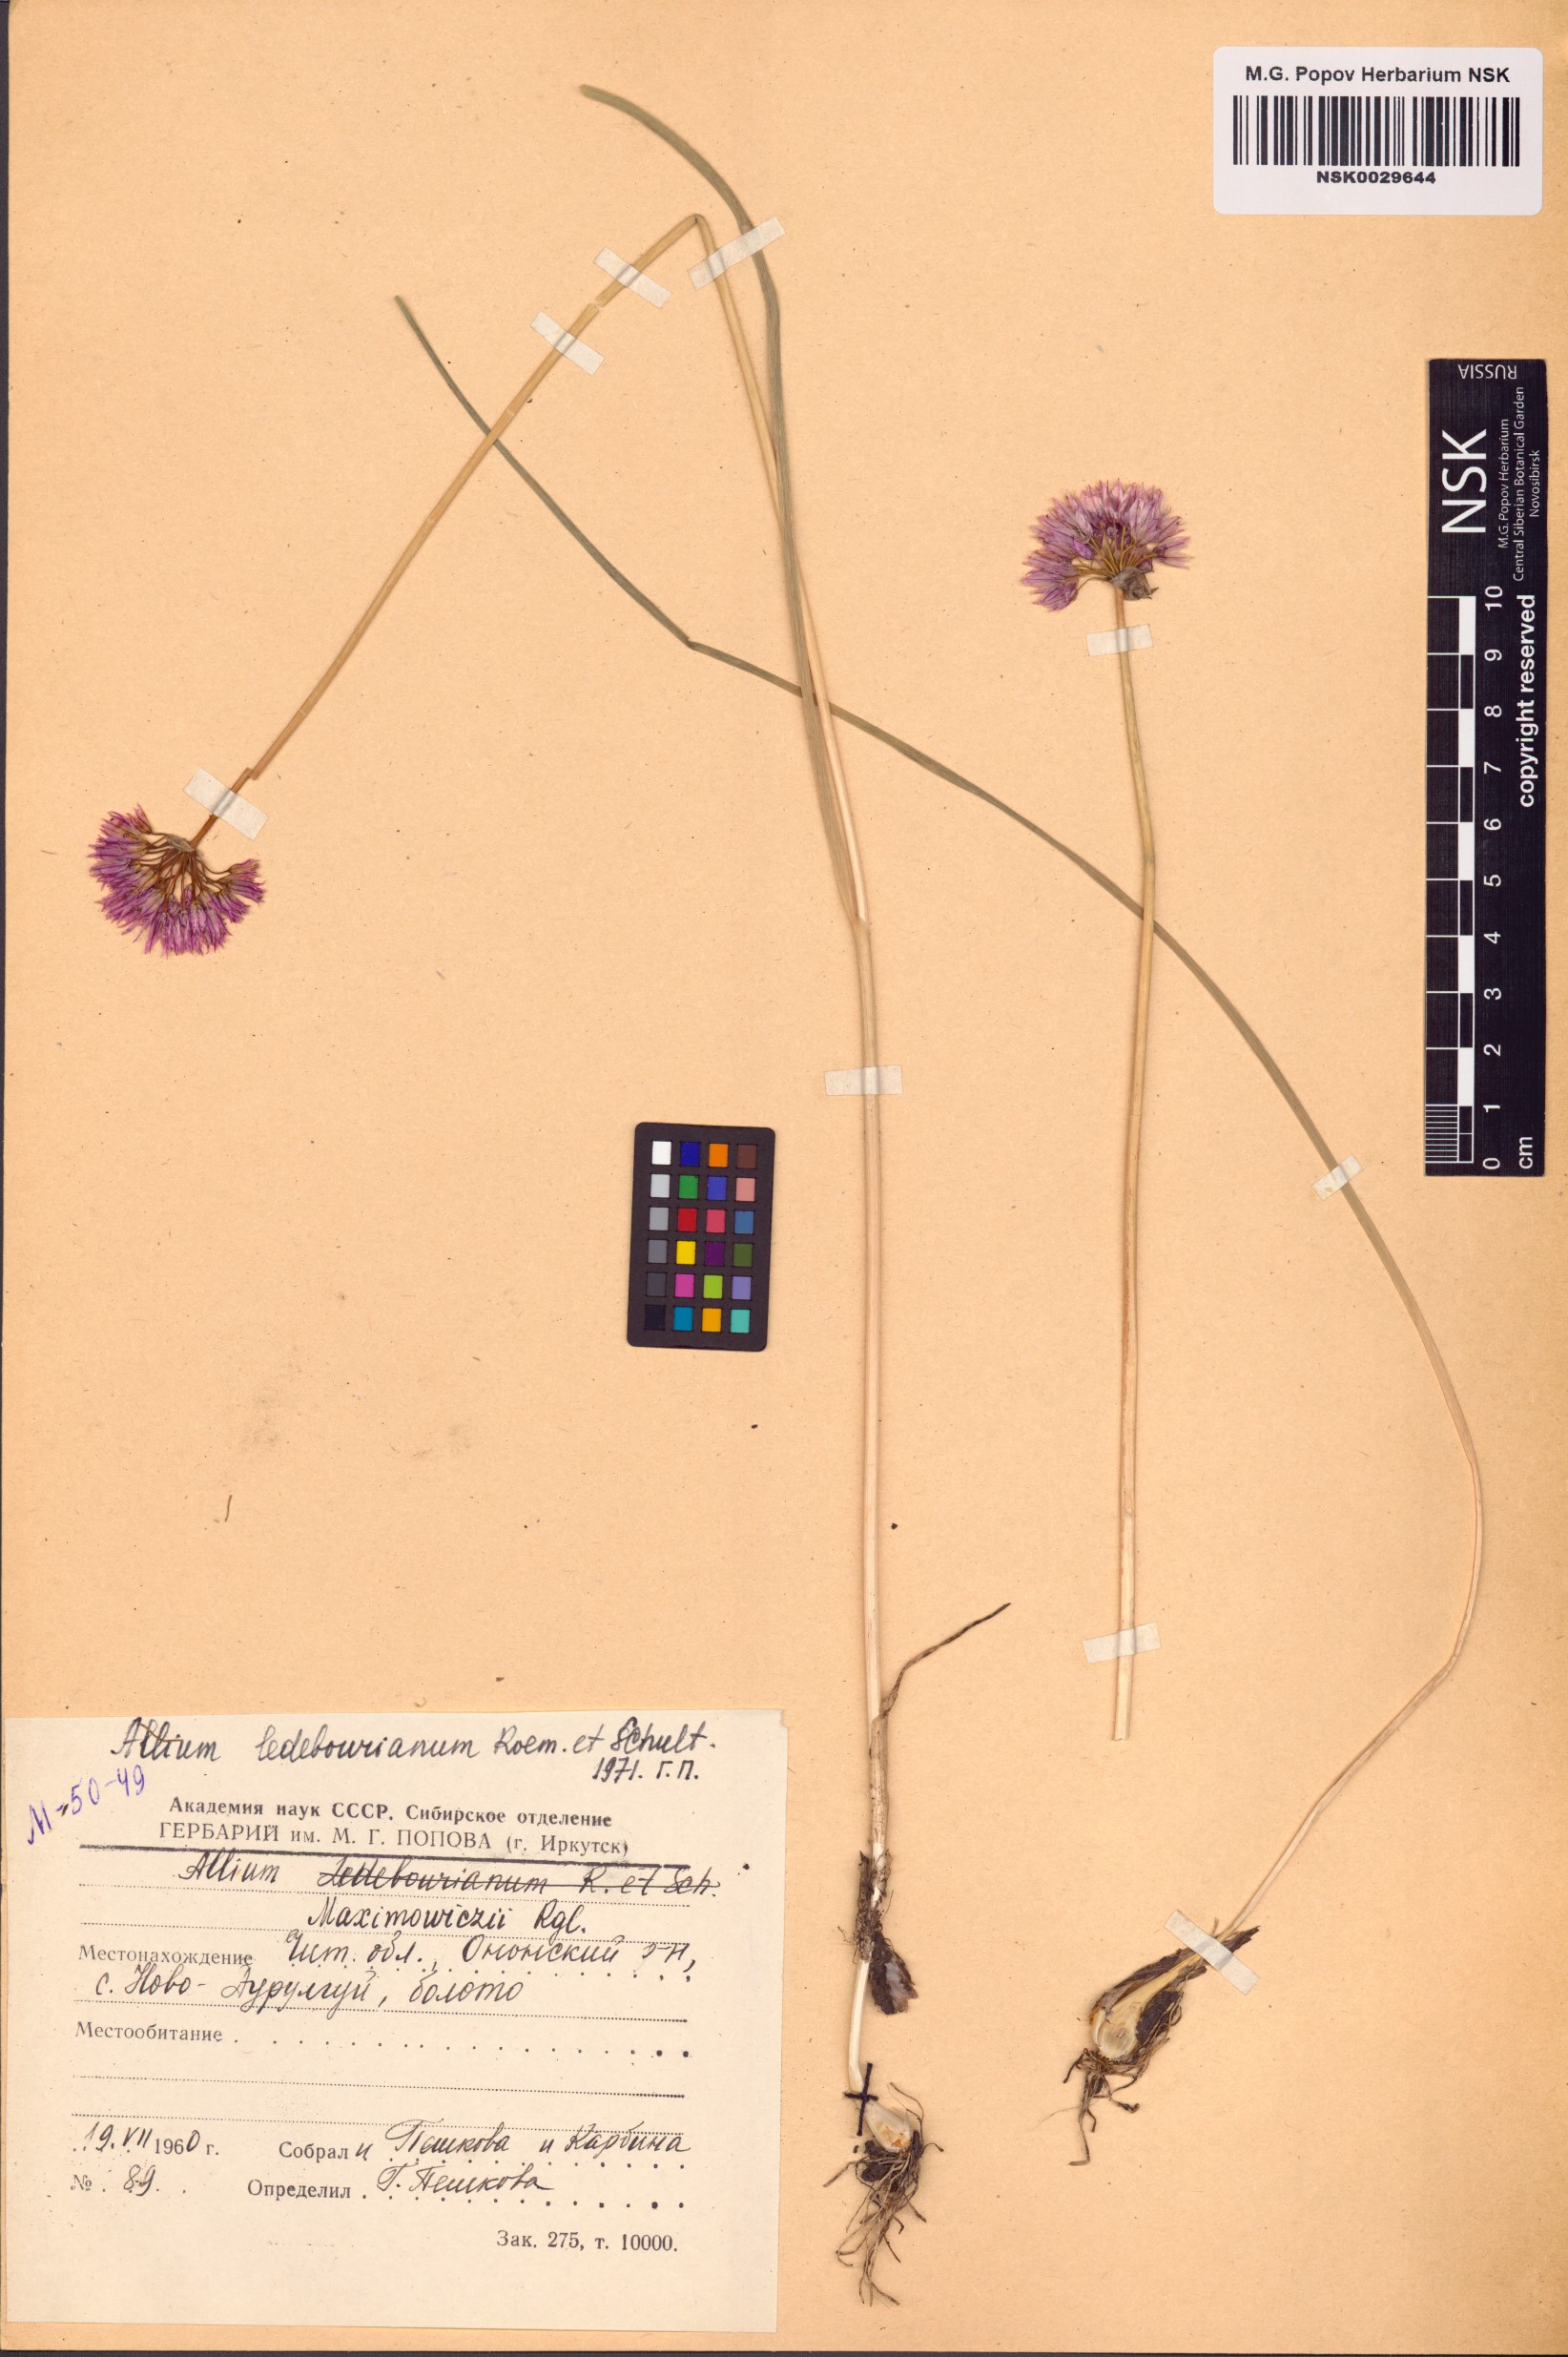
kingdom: Plantae
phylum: Tracheophyta
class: Liliopsida
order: Asparagales
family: Amaryllidaceae
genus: Allium
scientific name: Allium maximowiczii
